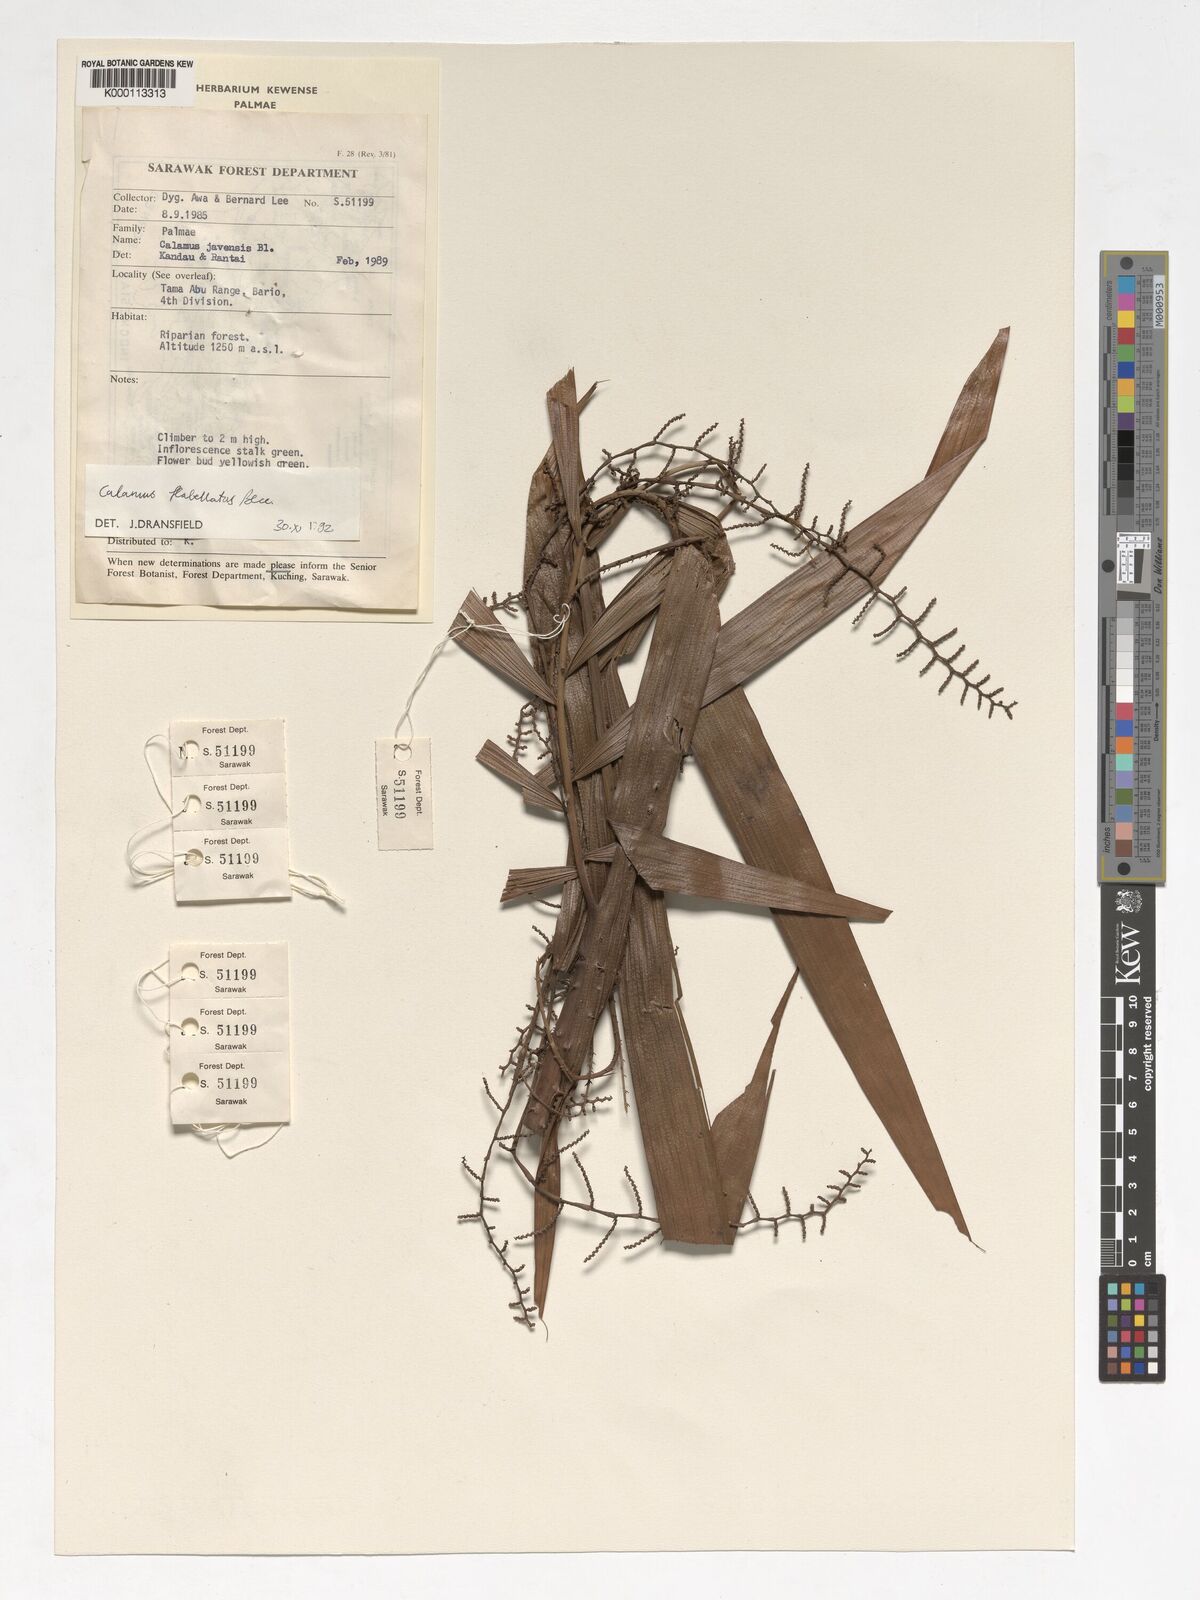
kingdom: Plantae
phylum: Tracheophyta
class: Liliopsida
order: Arecales
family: Arecaceae
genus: Calamus
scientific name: Calamus flabellatus
